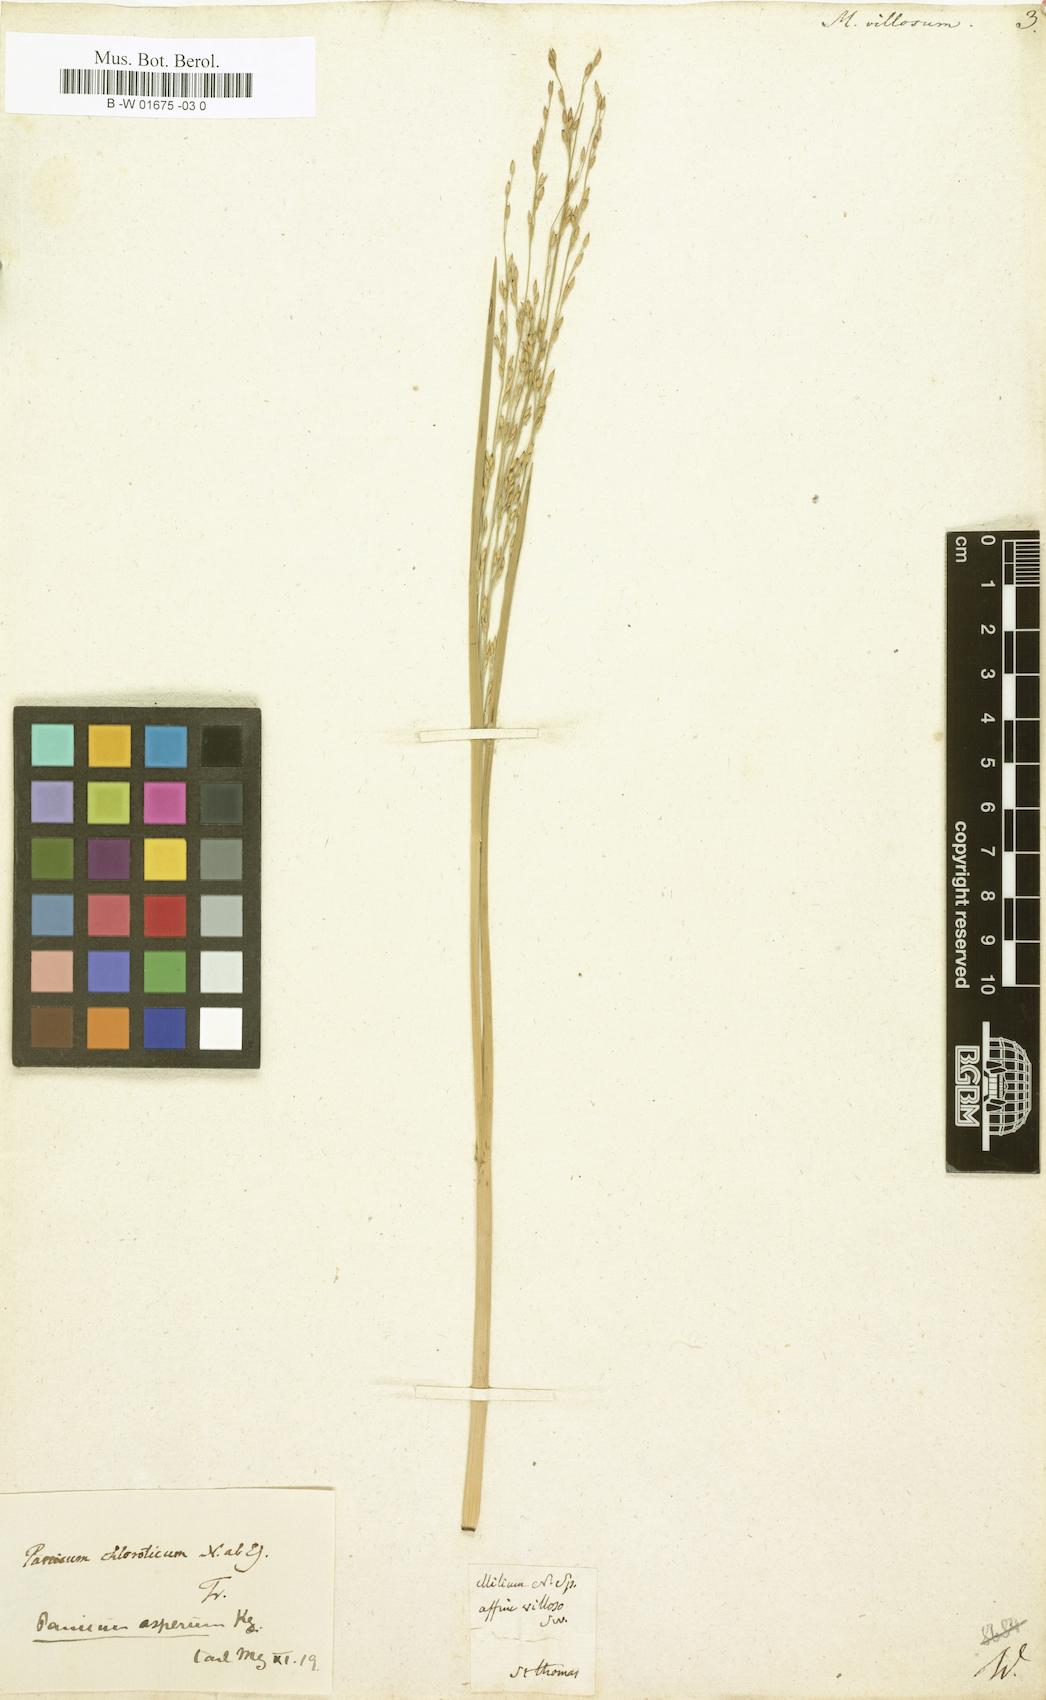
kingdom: Plantae
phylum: Tracheophyta
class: Liliopsida
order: Poales
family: Poaceae
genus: Digitaria
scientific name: Digitaria insularis
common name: Sourgrass
